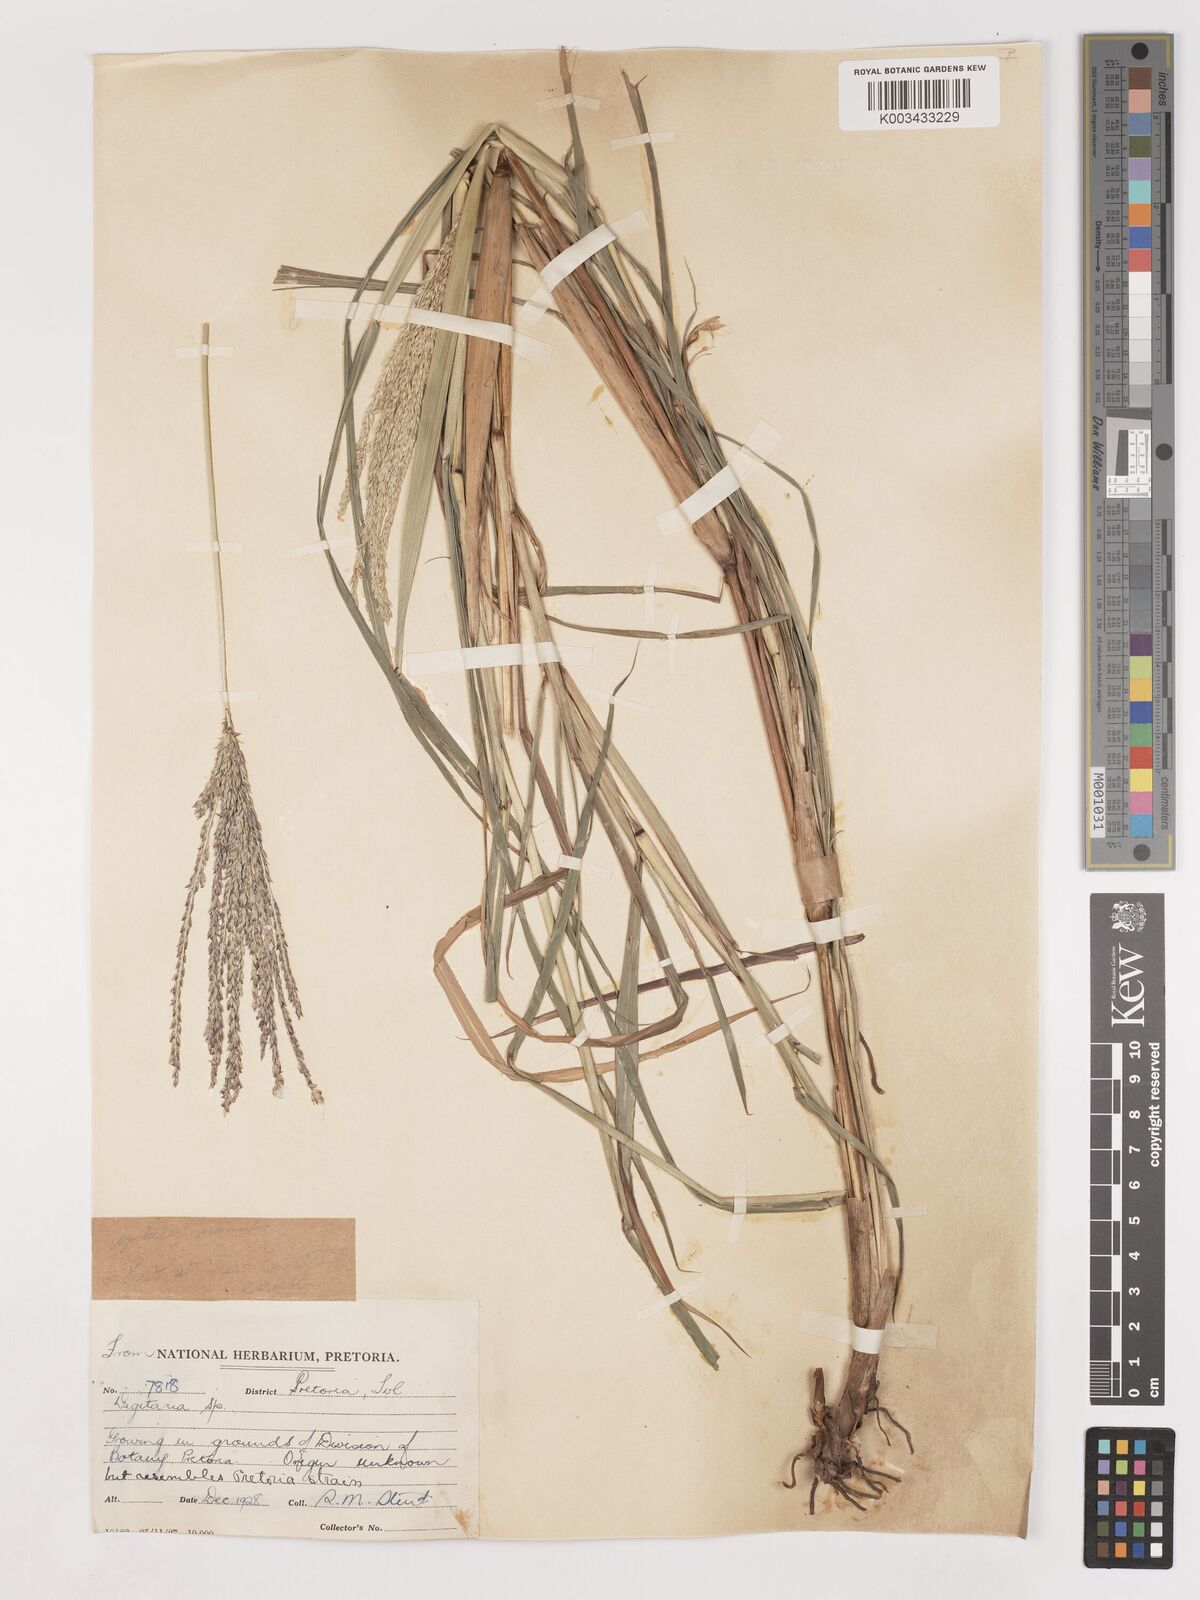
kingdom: Plantae
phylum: Tracheophyta
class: Liliopsida
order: Poales
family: Poaceae
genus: Digitaria
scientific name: Digitaria eriantha
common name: Digitgrass
